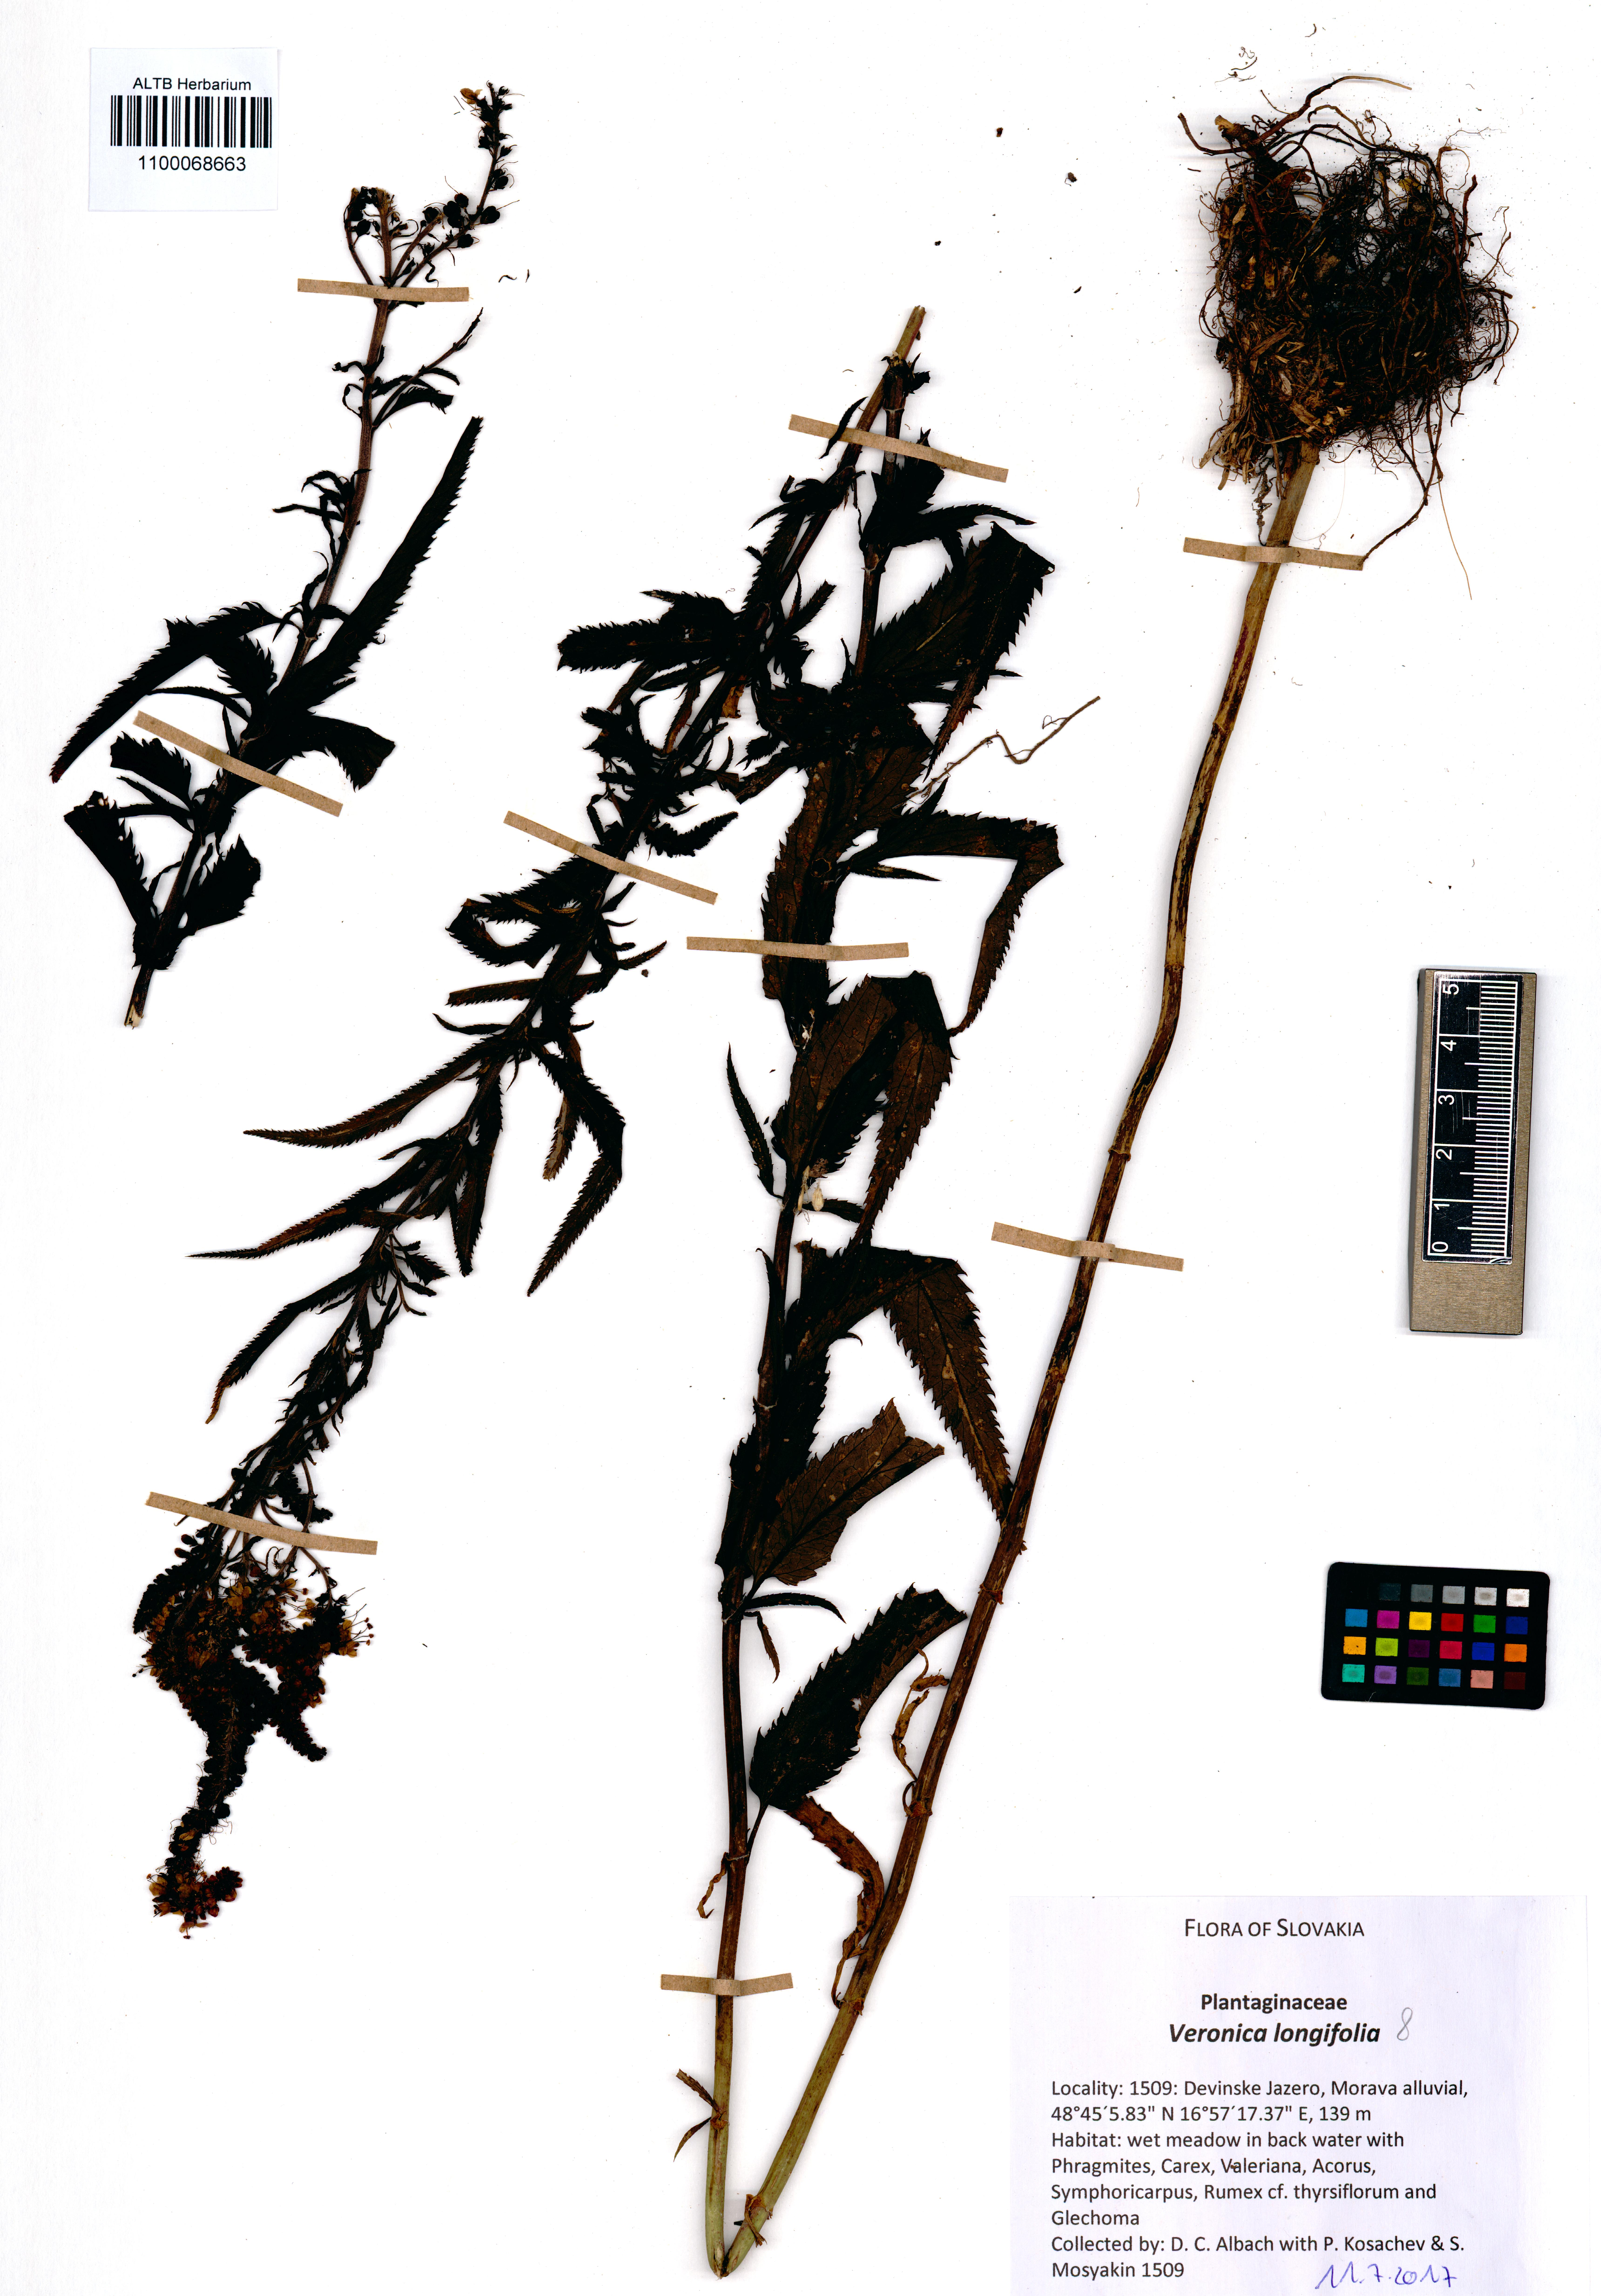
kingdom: Plantae
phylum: Tracheophyta
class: Magnoliopsida
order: Lamiales
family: Plantaginaceae
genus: Veronica
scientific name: Veronica longifolia
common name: Garden speedwell
